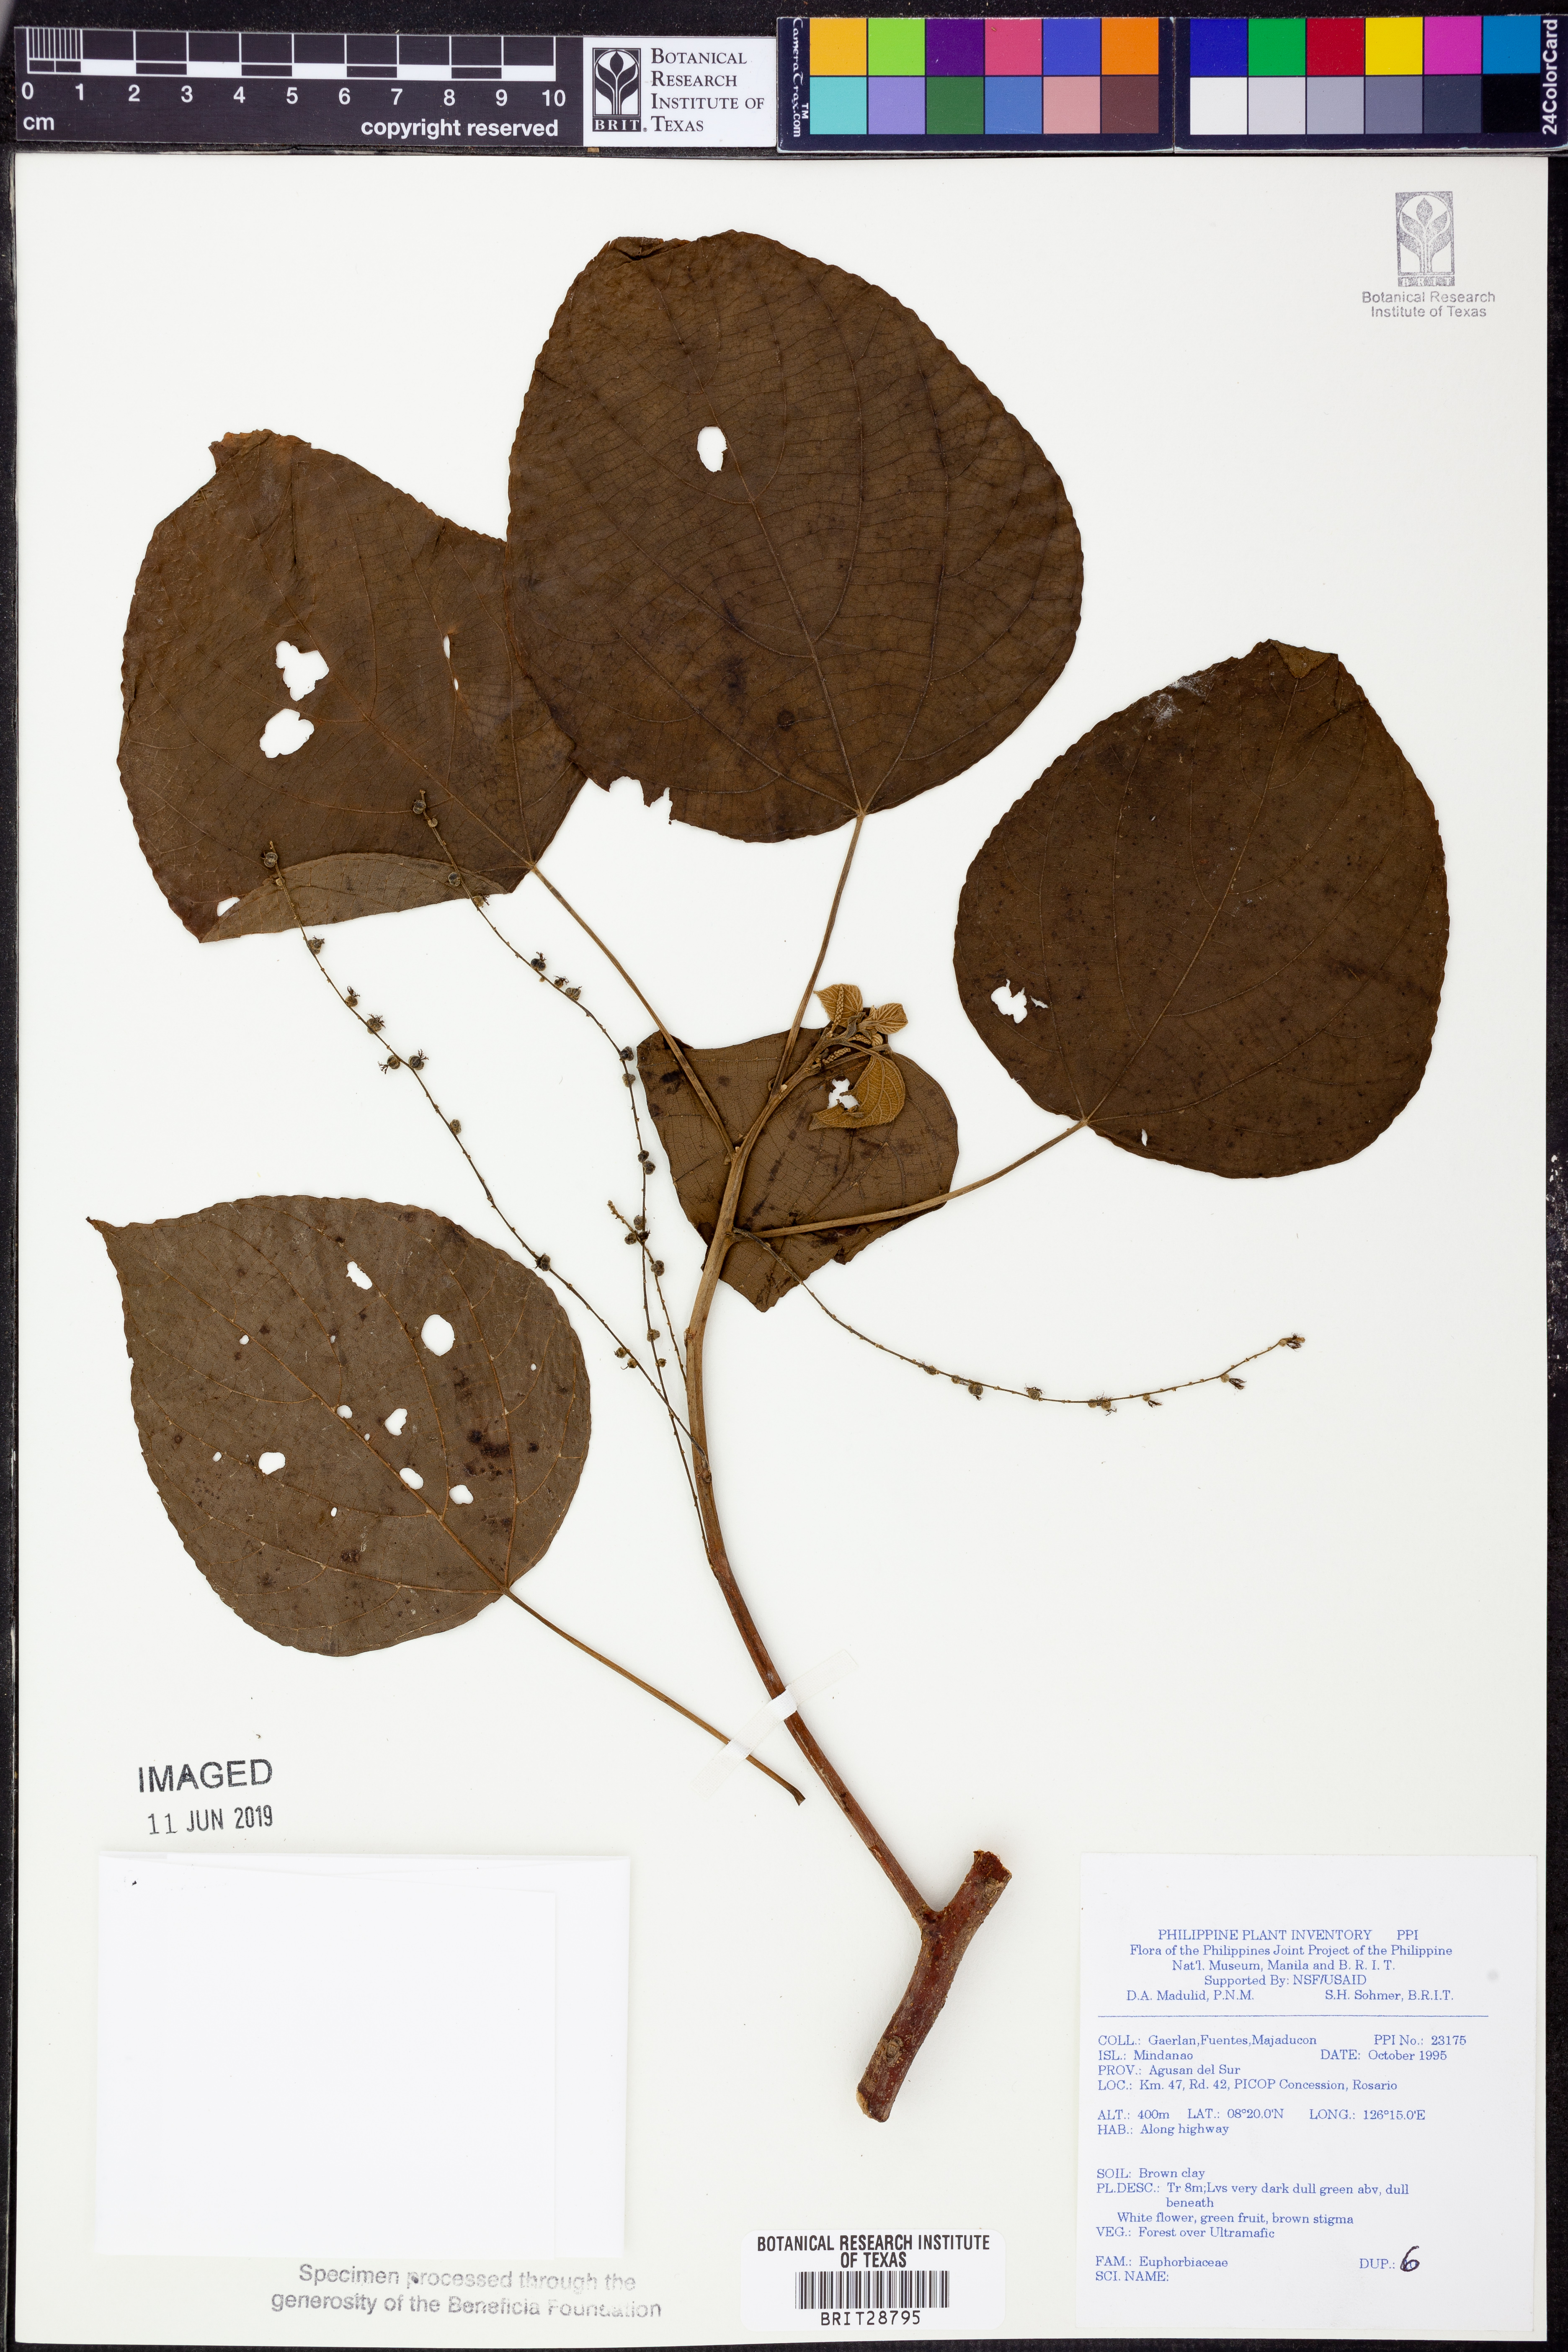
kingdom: Plantae
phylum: Tracheophyta
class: Magnoliopsida
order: Malpighiales
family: Euphorbiaceae
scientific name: Euphorbiaceae
